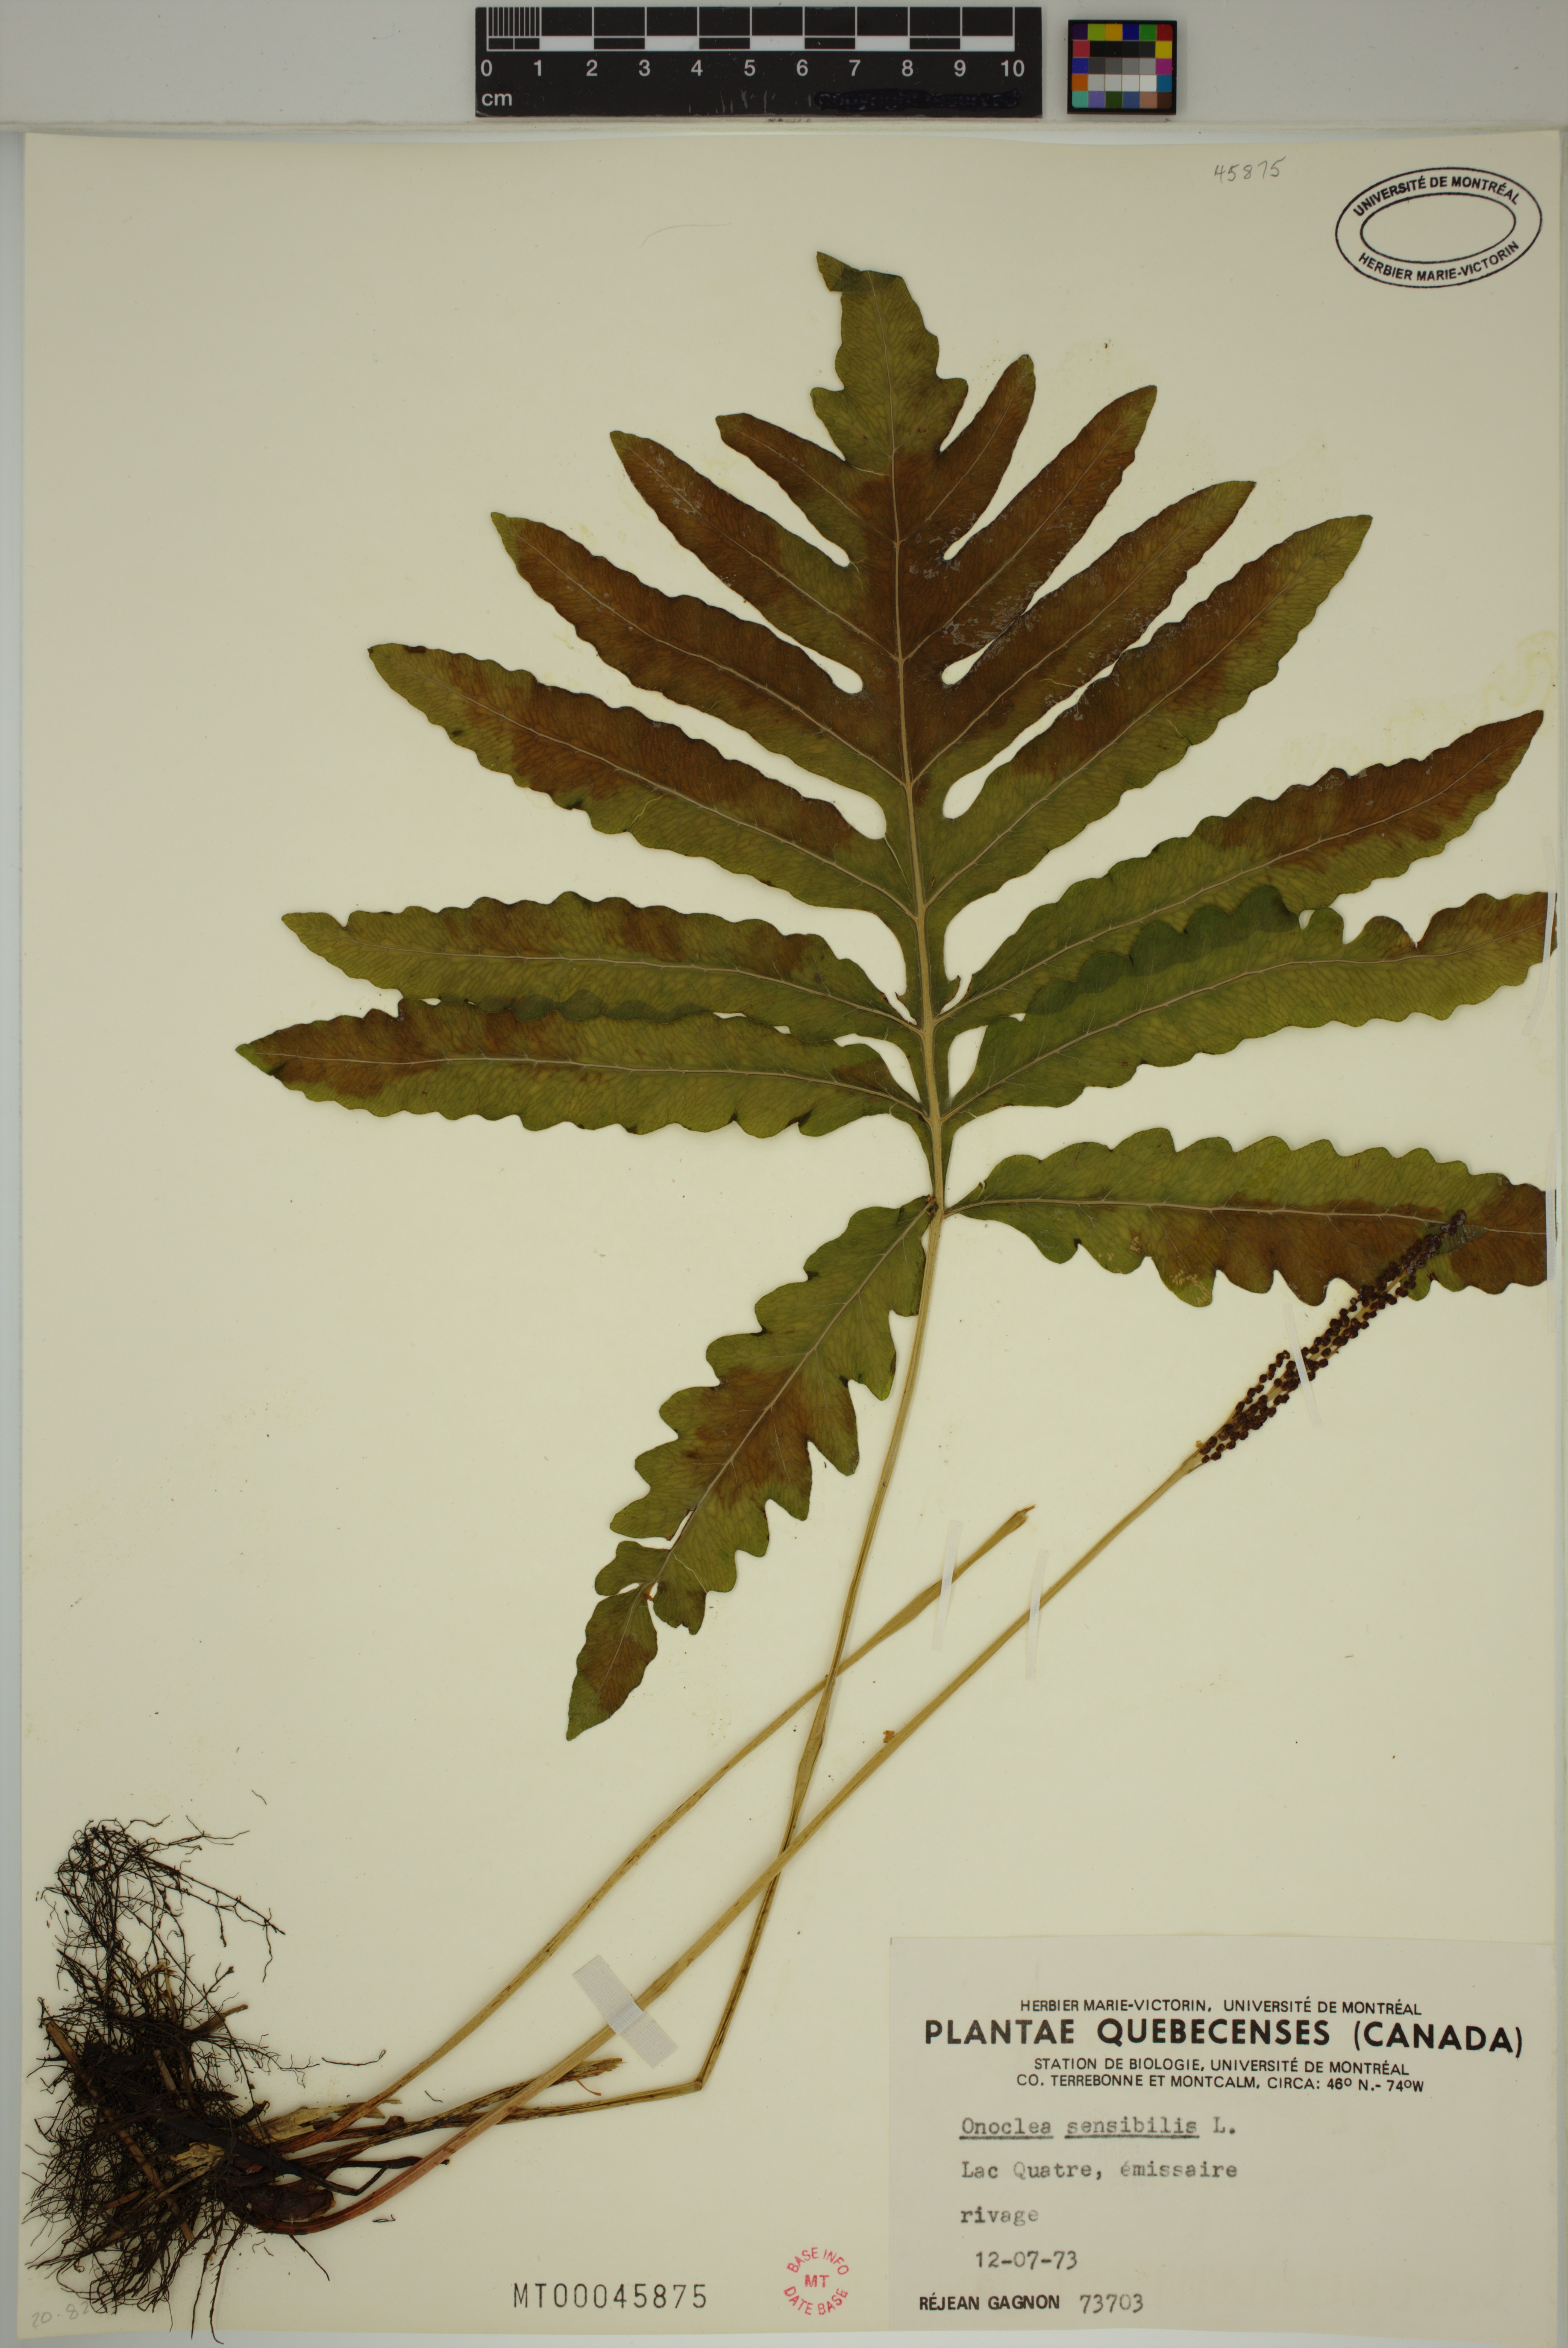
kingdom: Plantae
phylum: Tracheophyta
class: Polypodiopsida
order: Polypodiales
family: Onocleaceae
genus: Onoclea
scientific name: Onoclea sensibilis
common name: Sensitive fern
